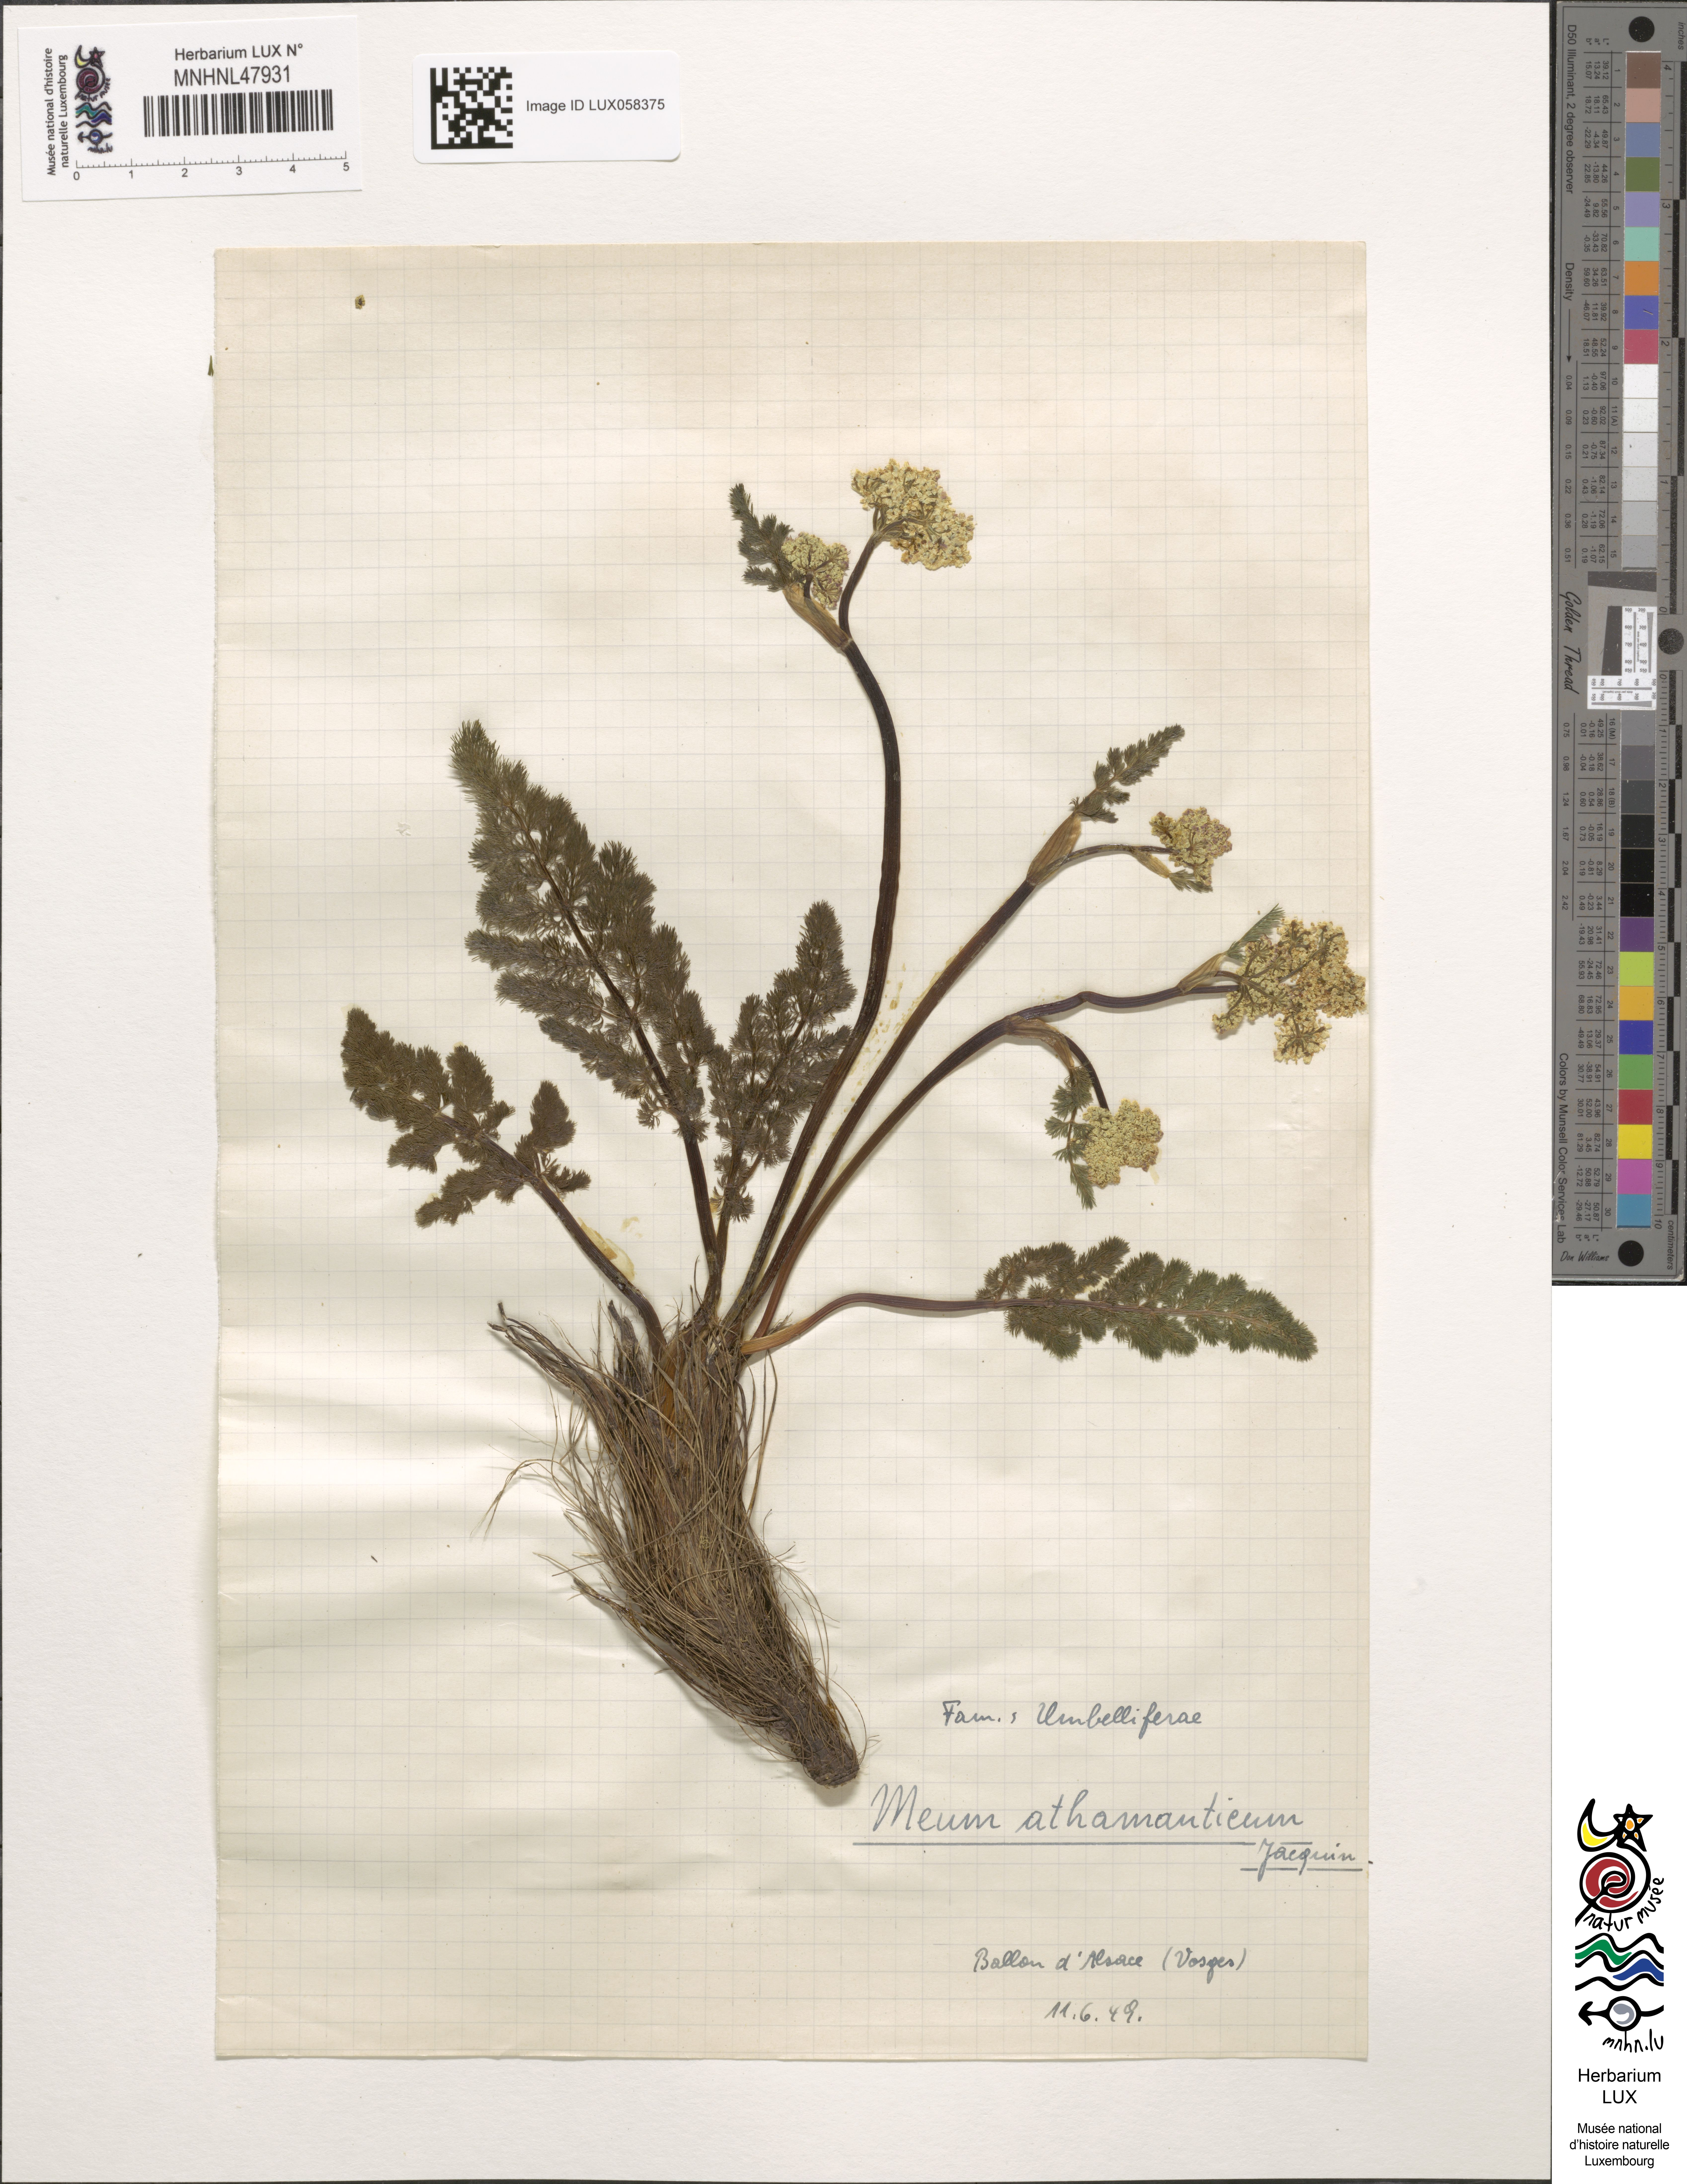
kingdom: Plantae
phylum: Tracheophyta
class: Magnoliopsida
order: Apiales
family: Apiaceae
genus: Meum
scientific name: Meum athamanticum
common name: Spignel
